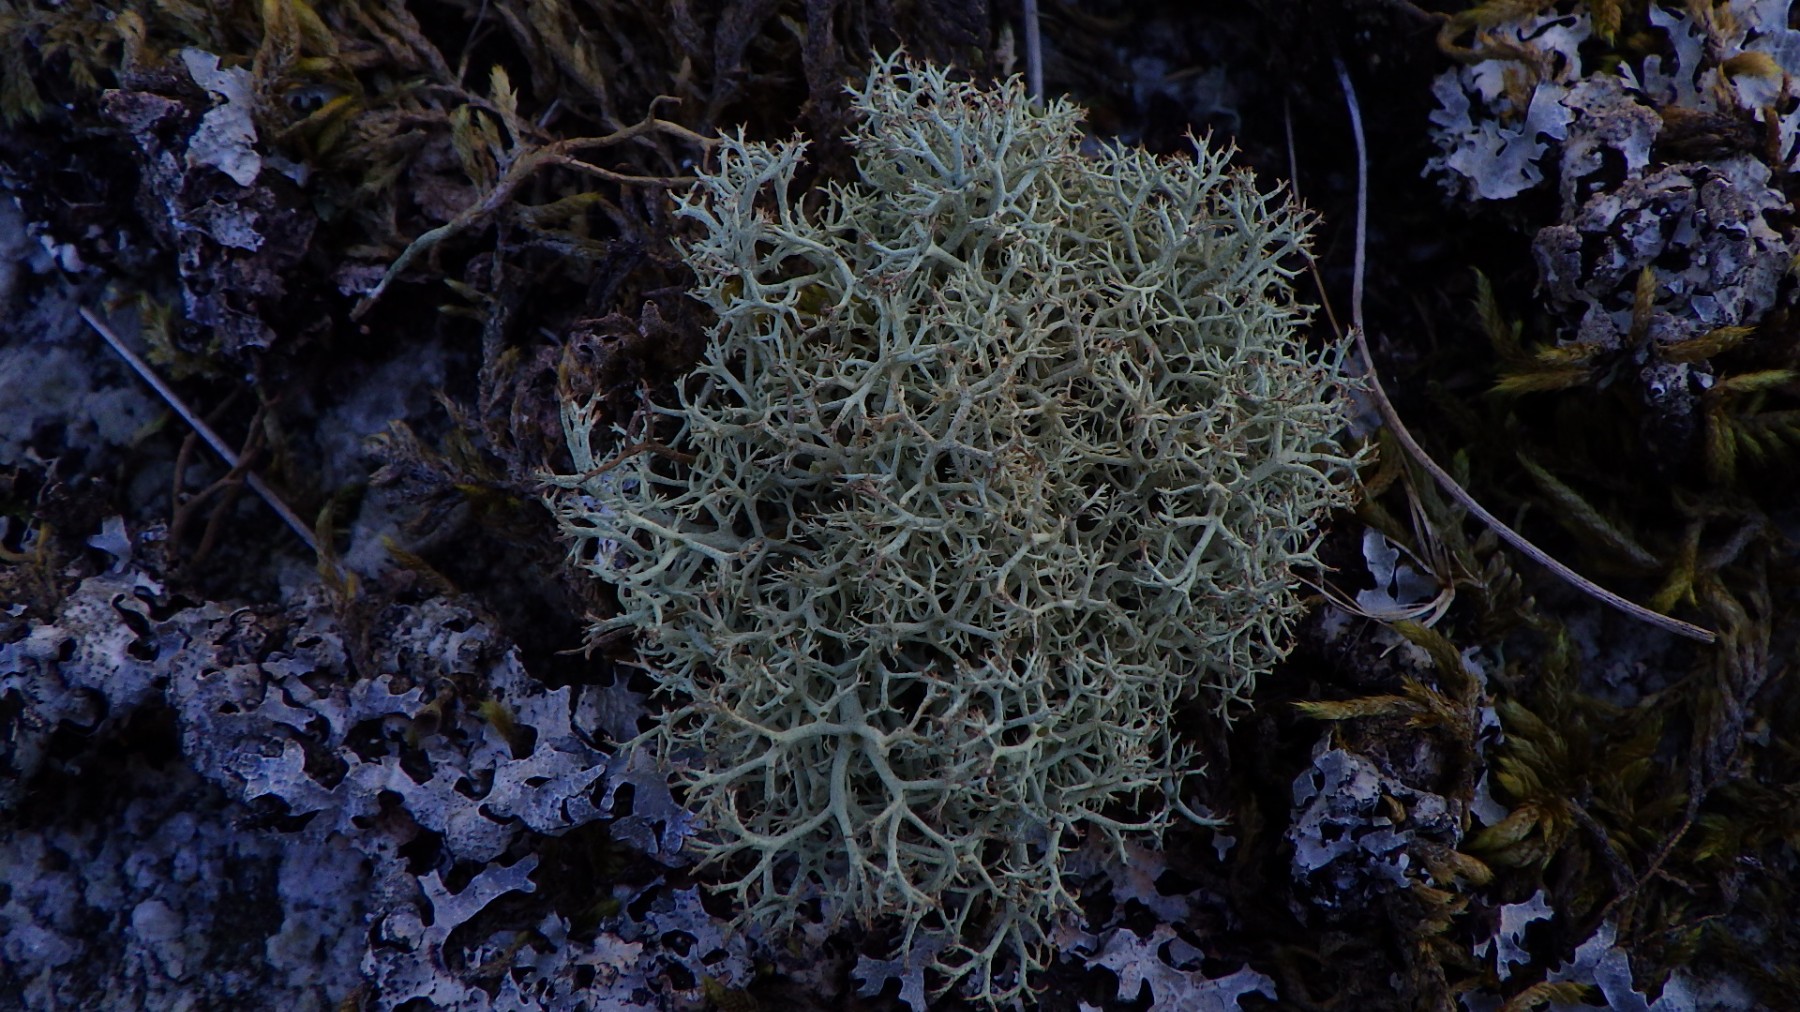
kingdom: Fungi
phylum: Ascomycota
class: Lecanoromycetes
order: Lecanorales
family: Cladoniaceae
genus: Cladonia
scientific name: Cladonia portentosa
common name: hede-rensdyrlav
